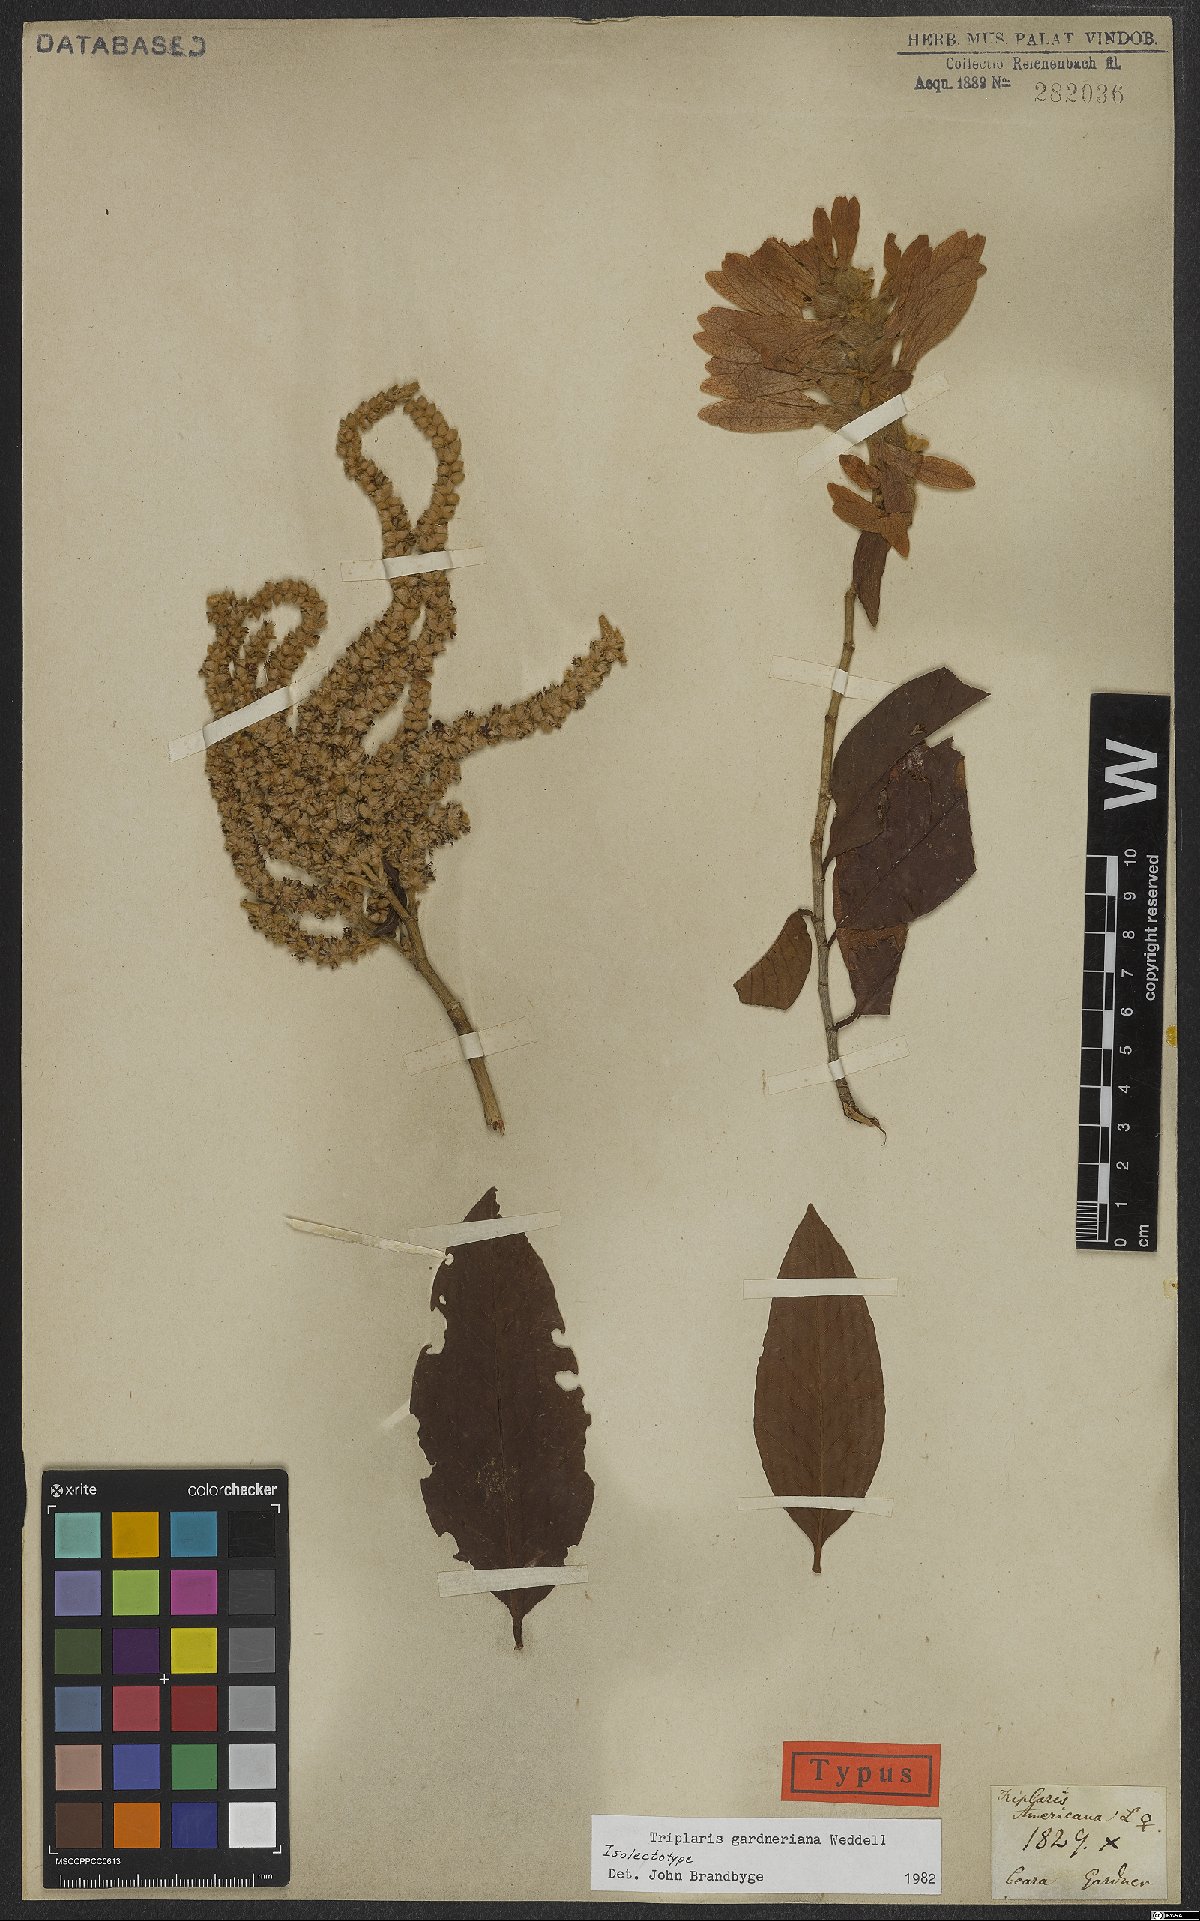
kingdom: Plantae
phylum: Tracheophyta
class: Magnoliopsida
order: Caryophyllales
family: Polygonaceae
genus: Triplaris
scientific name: Triplaris gardneriana
